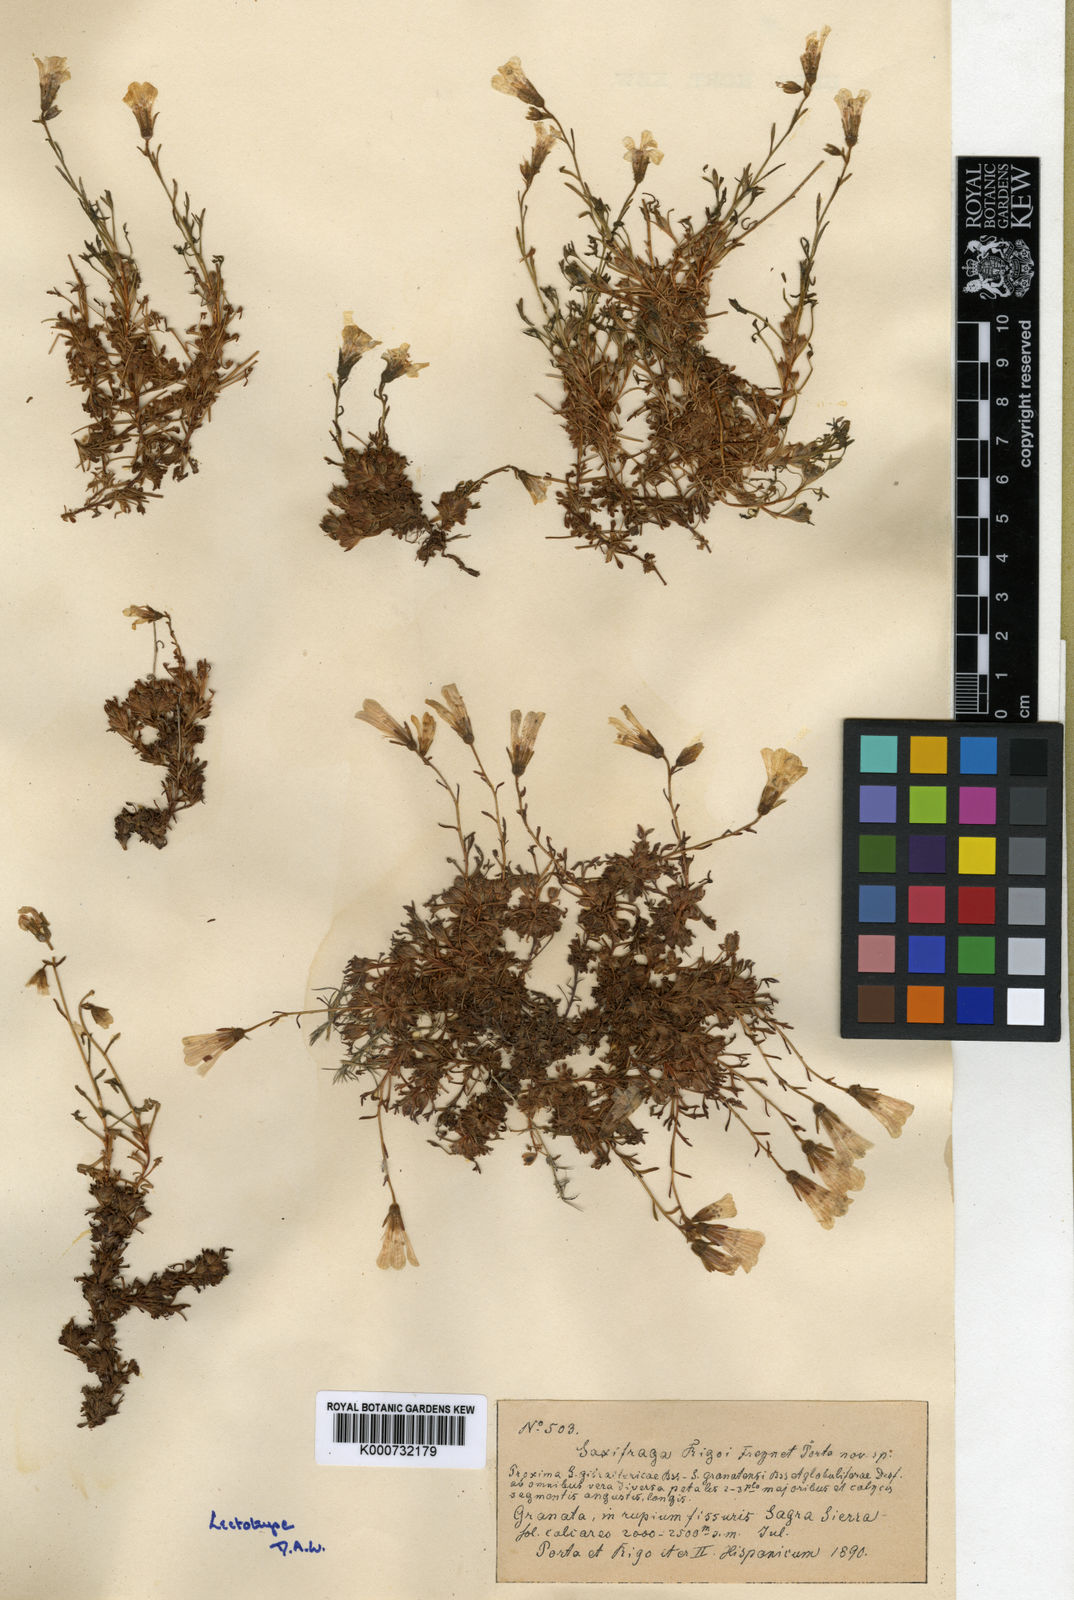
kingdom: Plantae
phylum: Tracheophyta
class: Magnoliopsida
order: Saxifragales
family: Saxifragaceae
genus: Saxifraga
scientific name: Saxifraga rigoi
